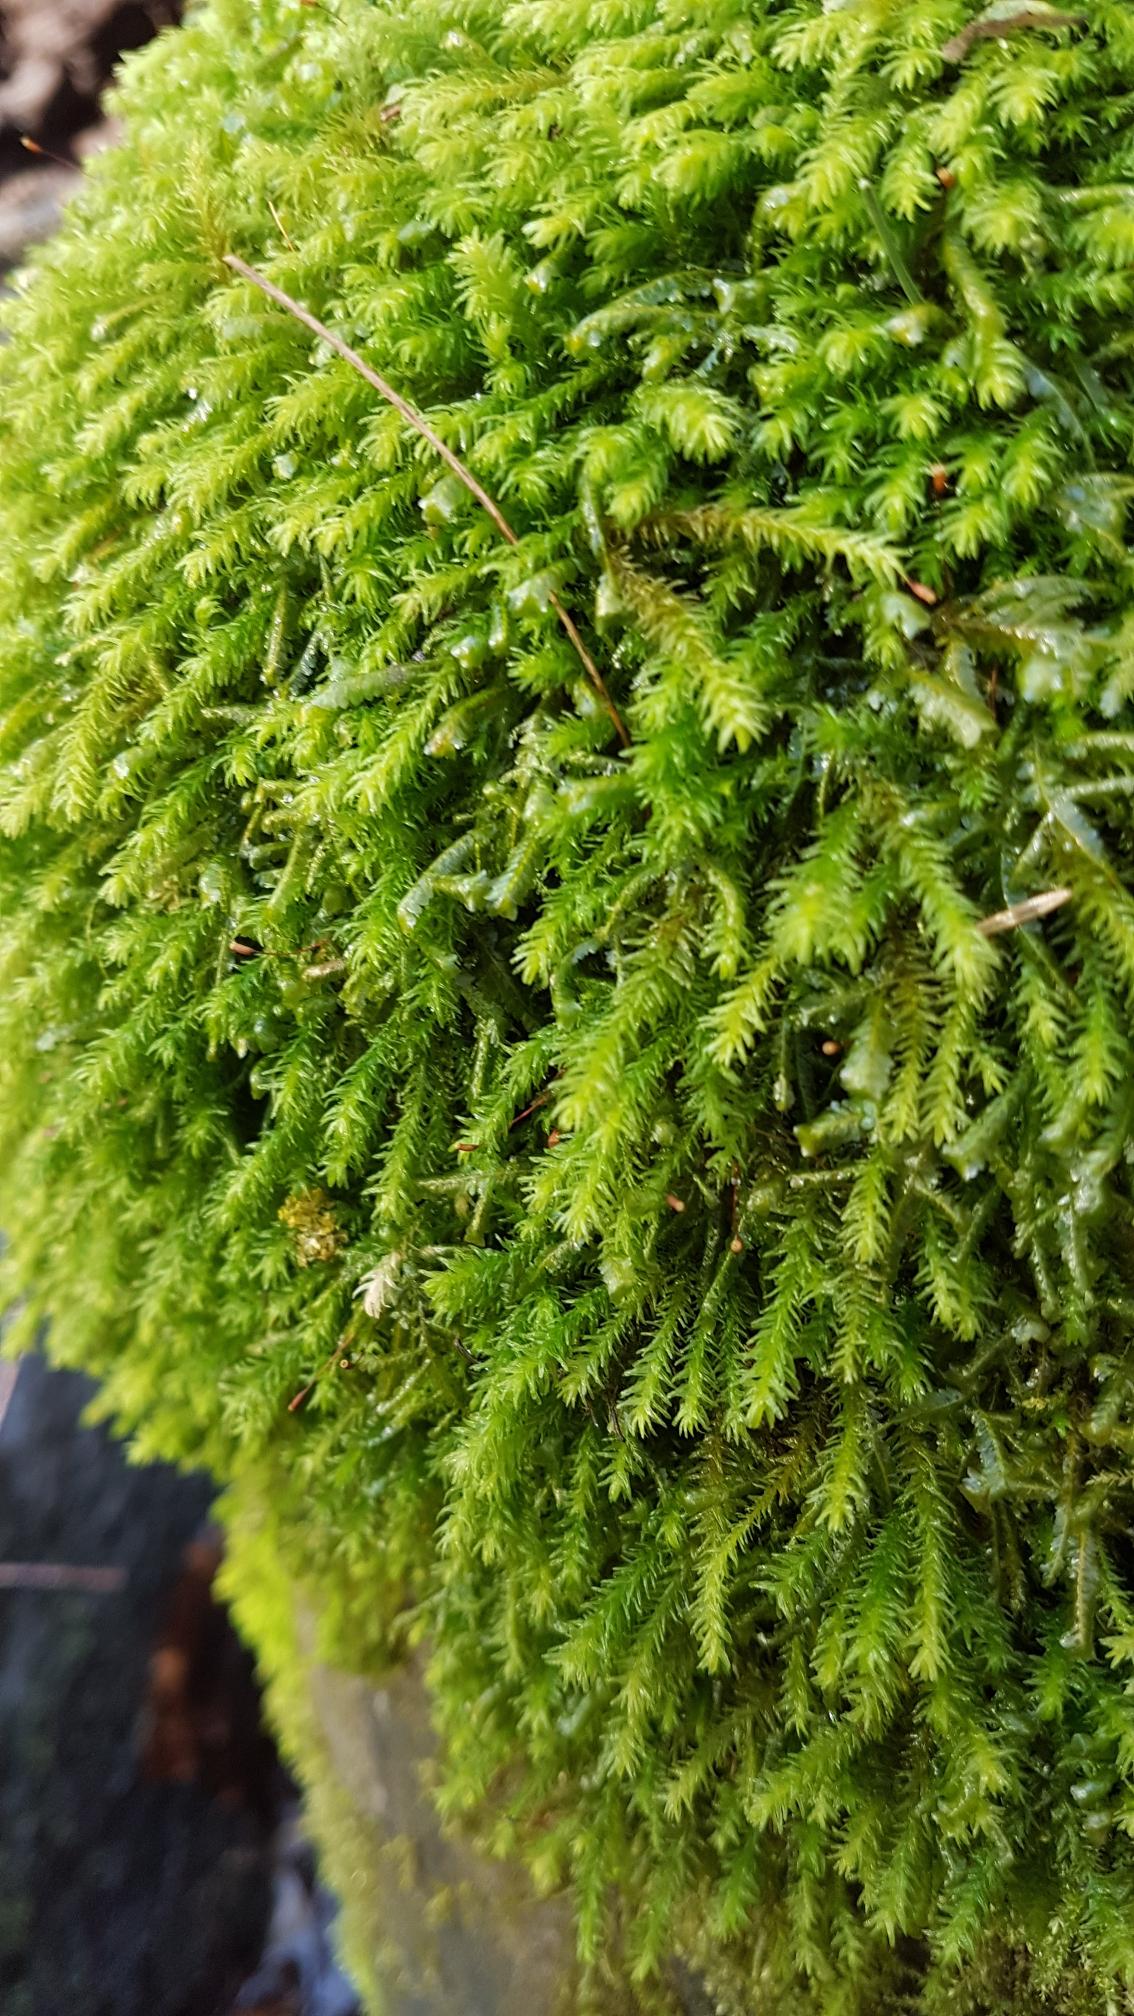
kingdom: Plantae
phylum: Bryophyta
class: Bryopsida
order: Hypnales
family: Anomodontaceae
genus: Anomodon
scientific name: Anomodon viticulosus
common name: Robust matblad
